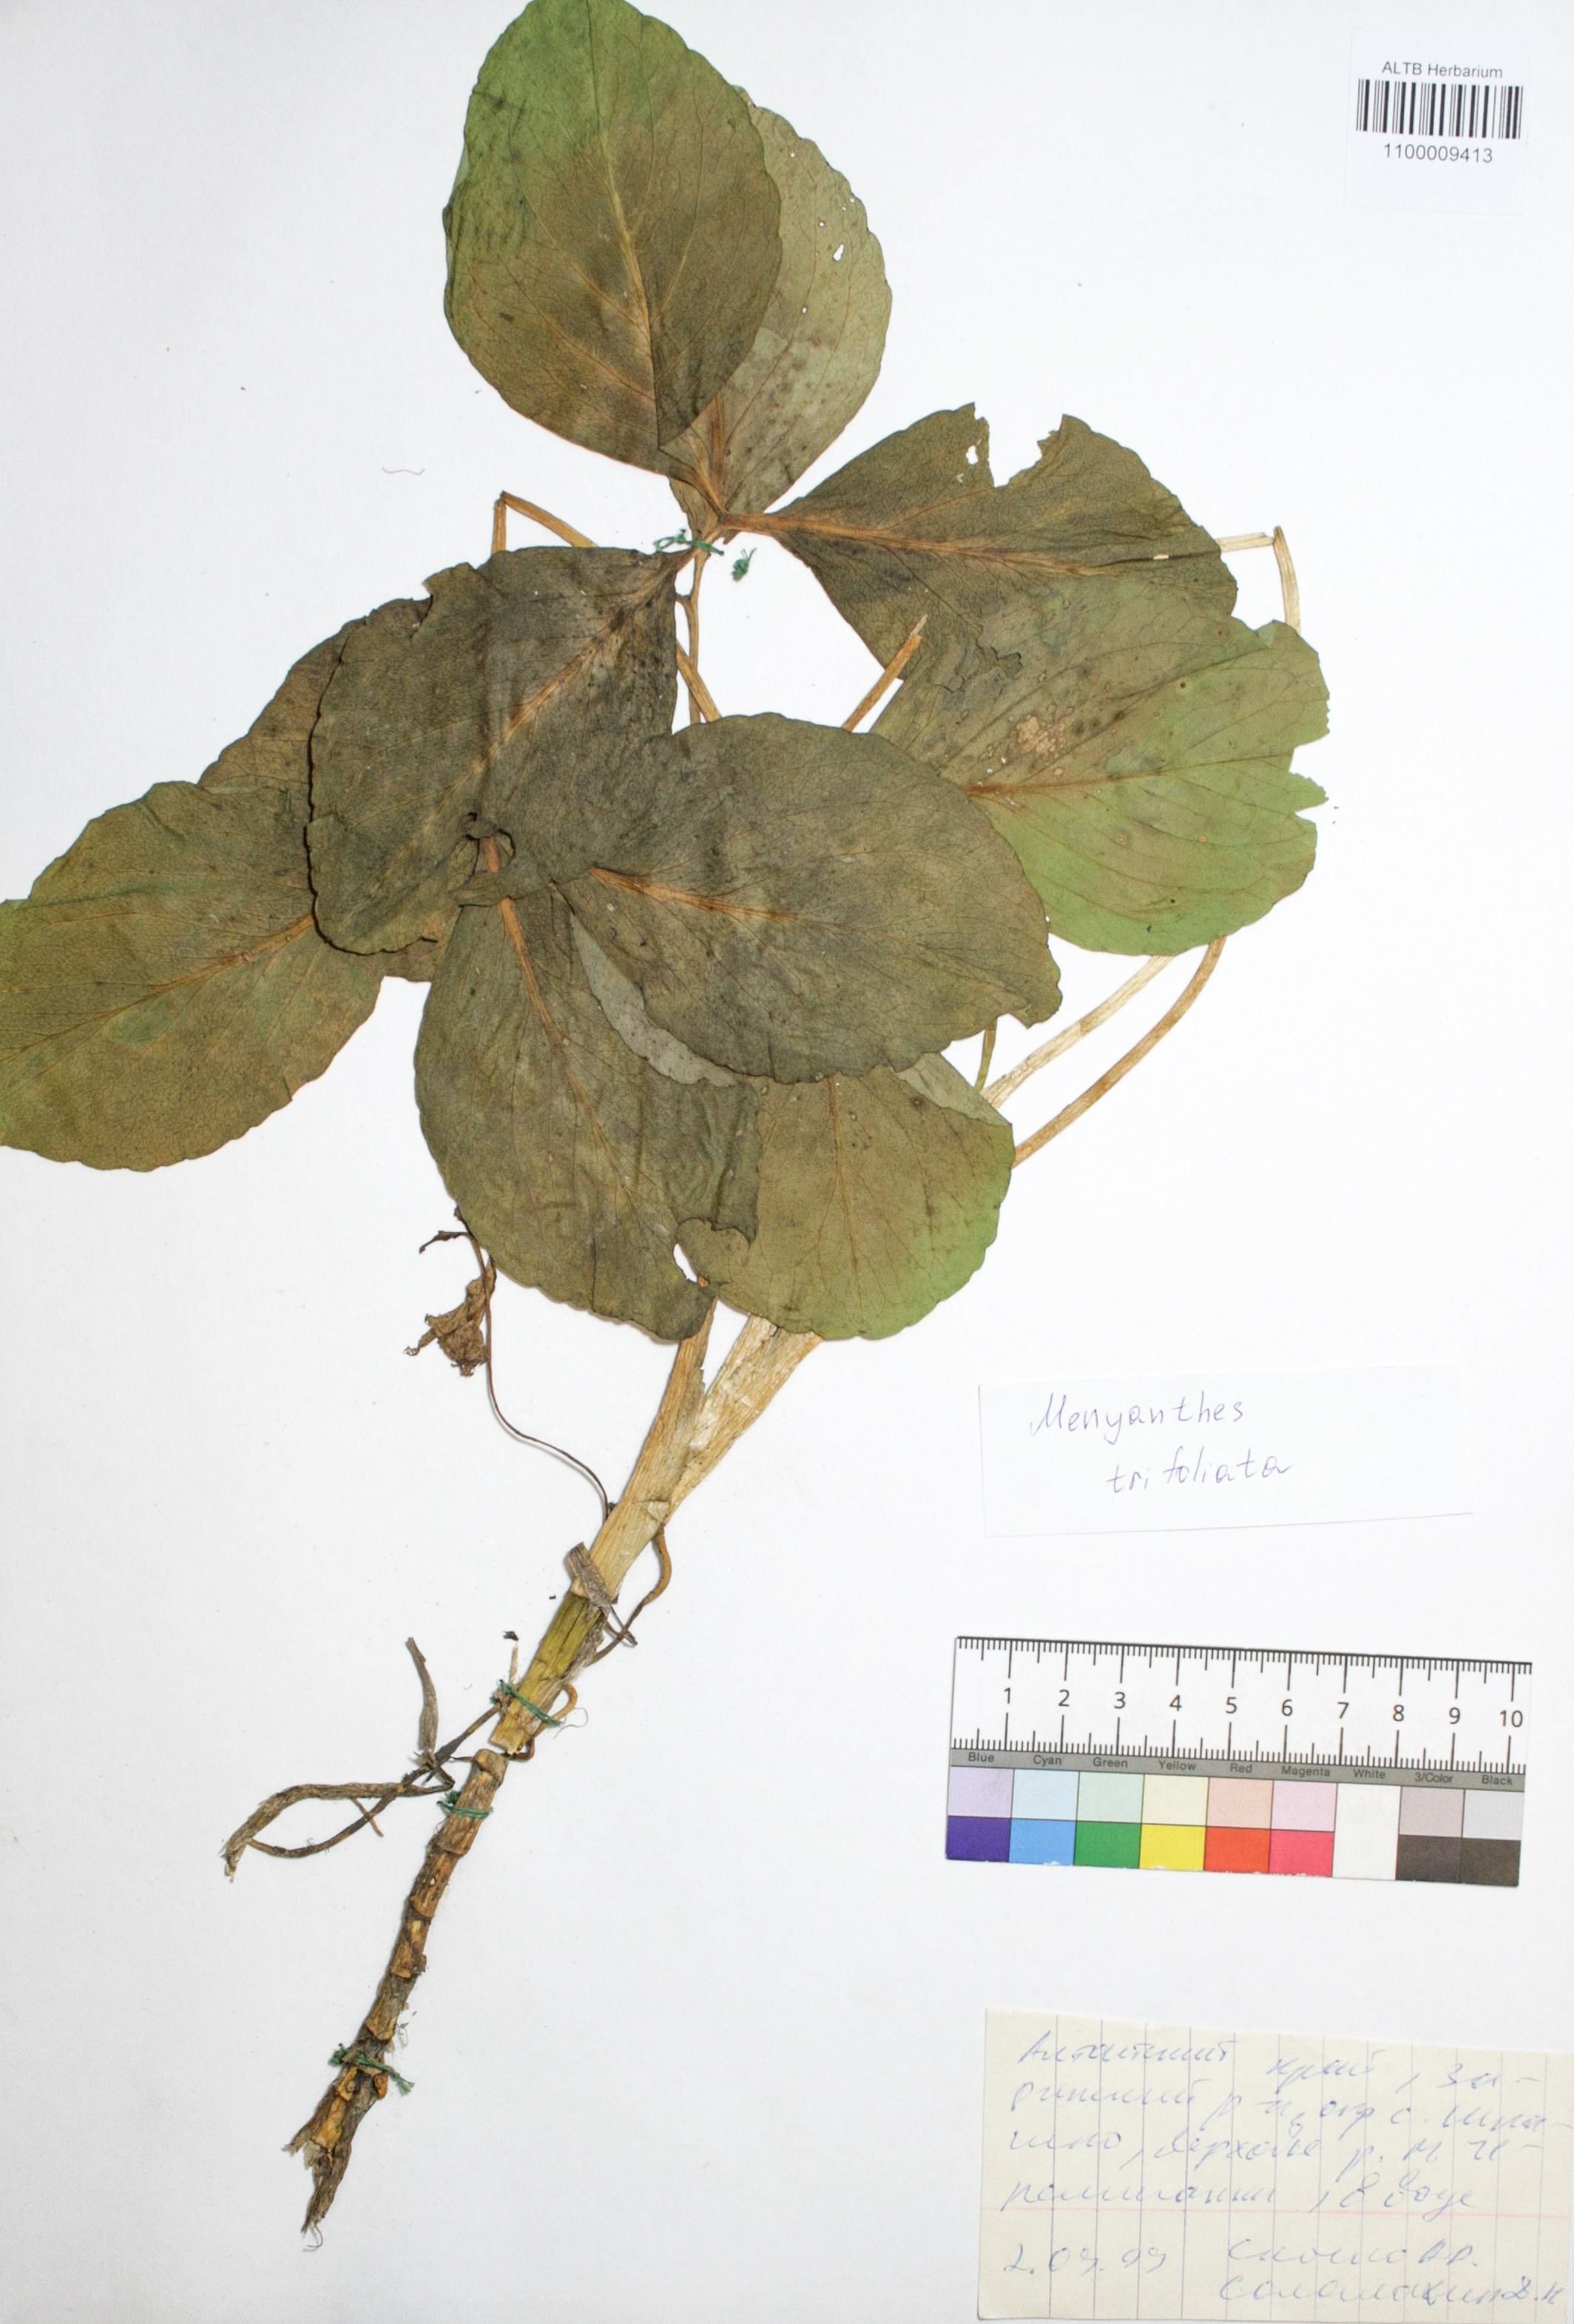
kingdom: Plantae
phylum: Tracheophyta
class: Magnoliopsida
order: Asterales
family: Menyanthaceae
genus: Menyanthes
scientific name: Menyanthes trifoliata
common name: Bogbean
